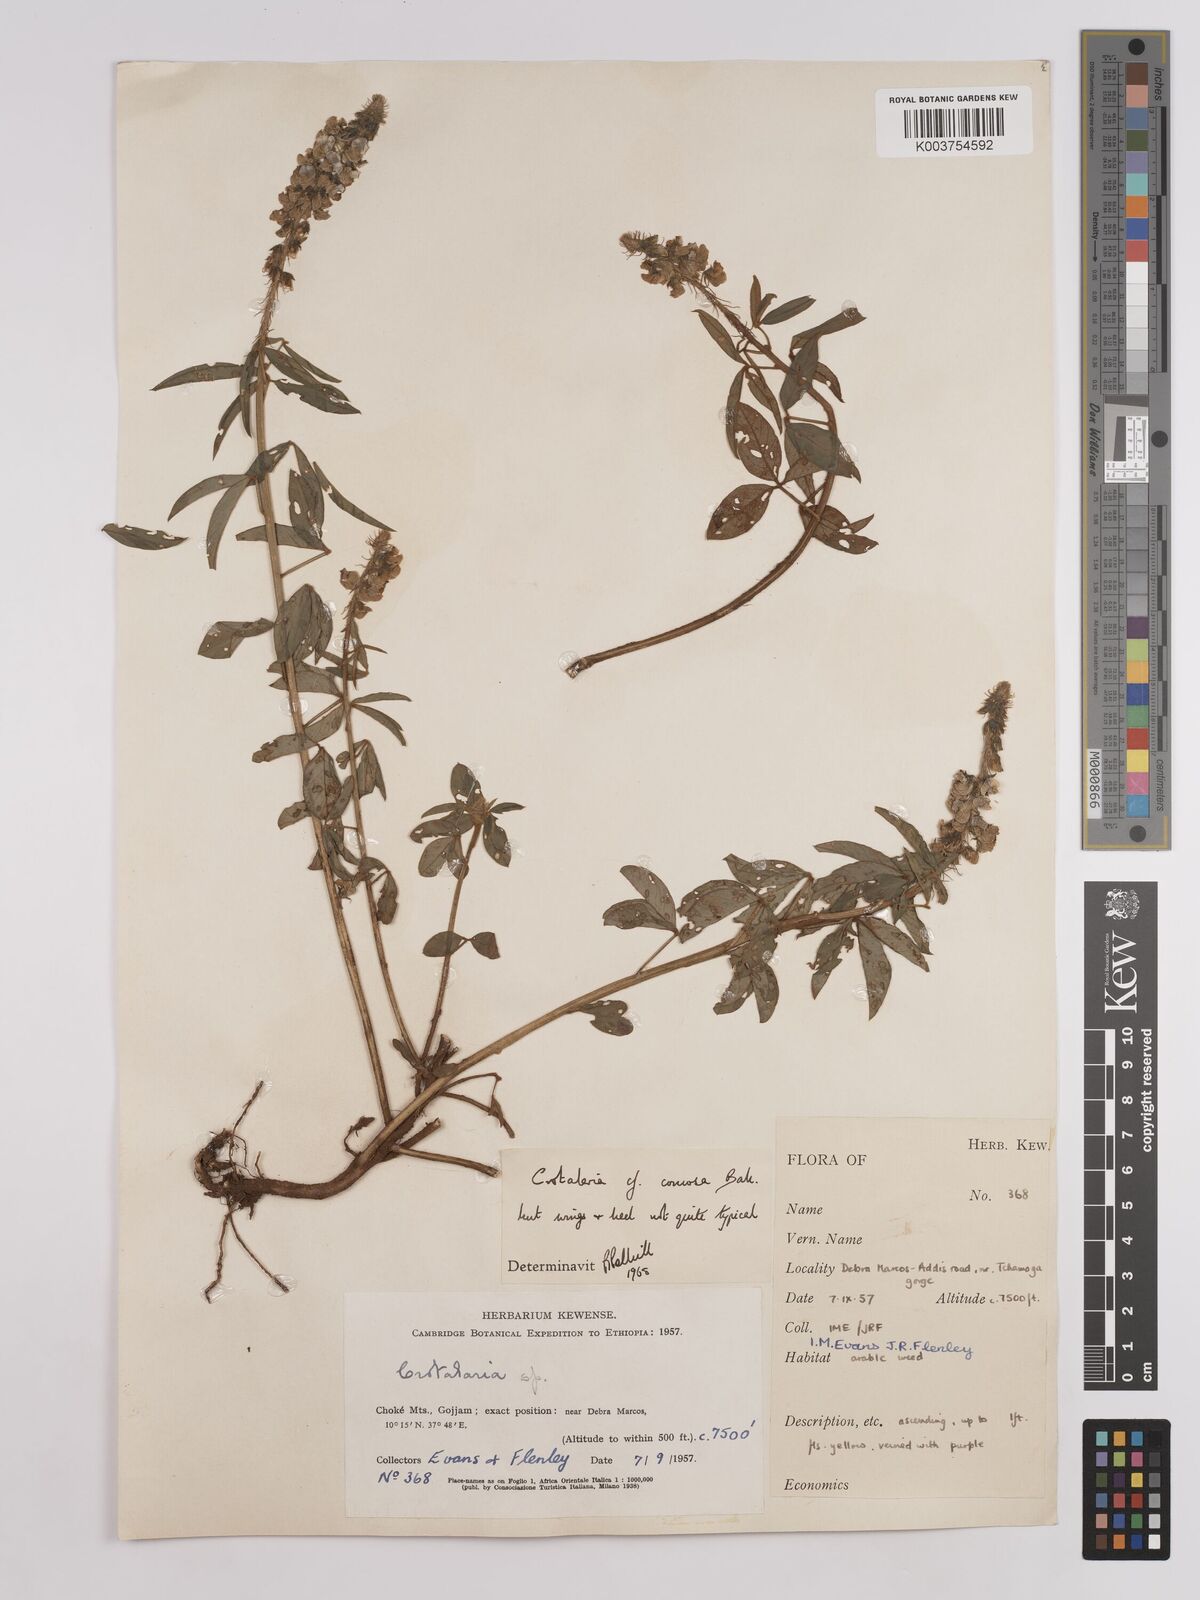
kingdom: Plantae
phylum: Tracheophyta
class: Magnoliopsida
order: Fabales
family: Fabaceae
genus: Crotalaria
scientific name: Crotalaria comosa
